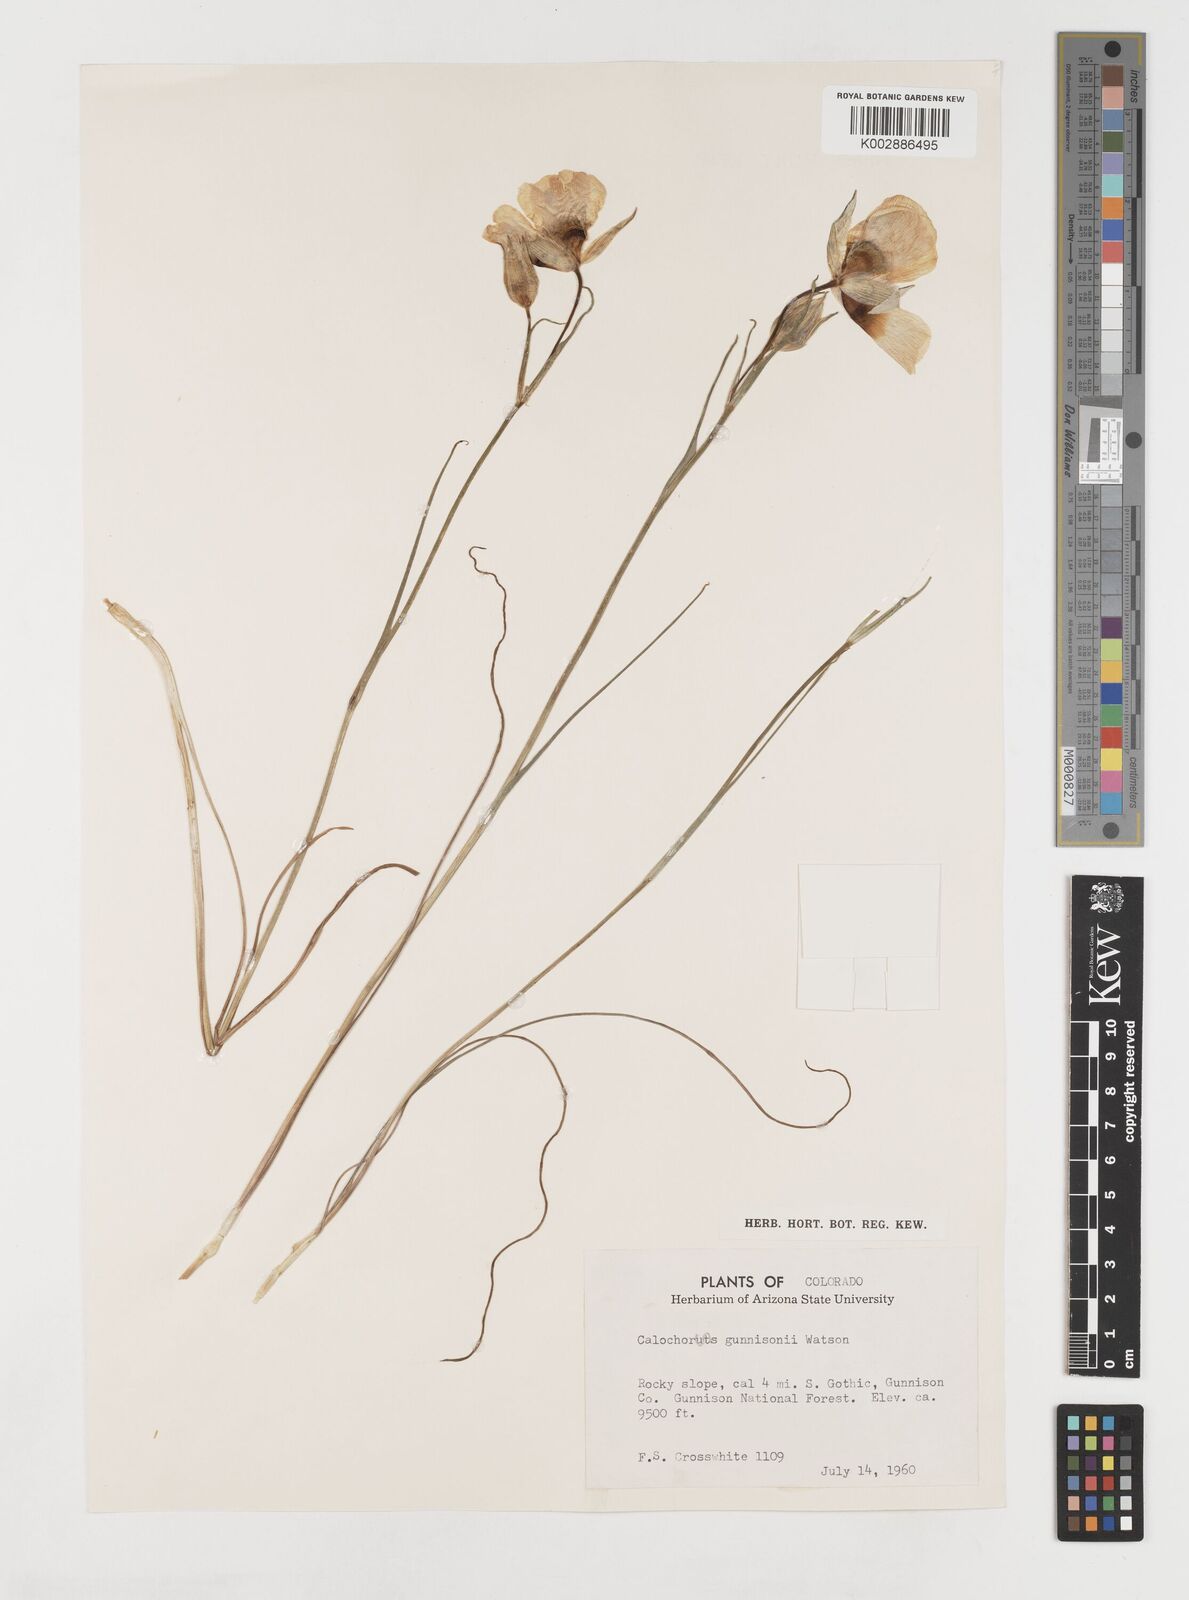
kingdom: Plantae
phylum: Tracheophyta
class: Liliopsida
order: Liliales
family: Liliaceae
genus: Calochortus
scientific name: Calochortus gunnisonii
